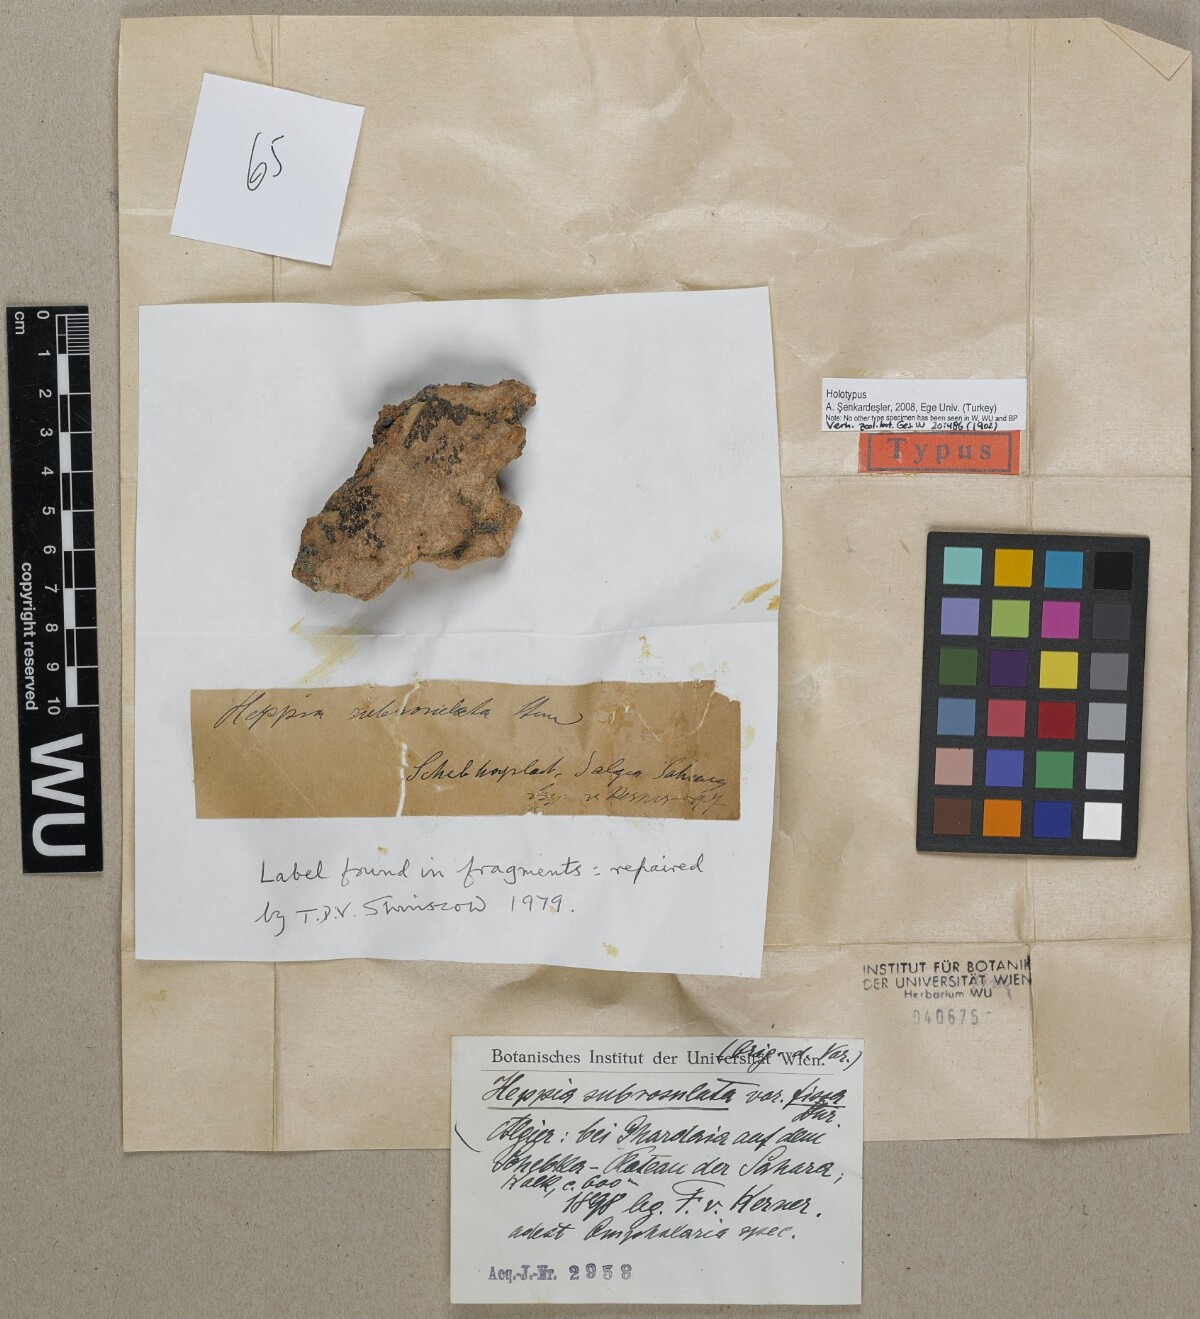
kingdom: Fungi
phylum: Ascomycota
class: Lichinomycetes
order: Lichinales
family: Lichinaceae
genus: Heppia
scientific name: Heppia
